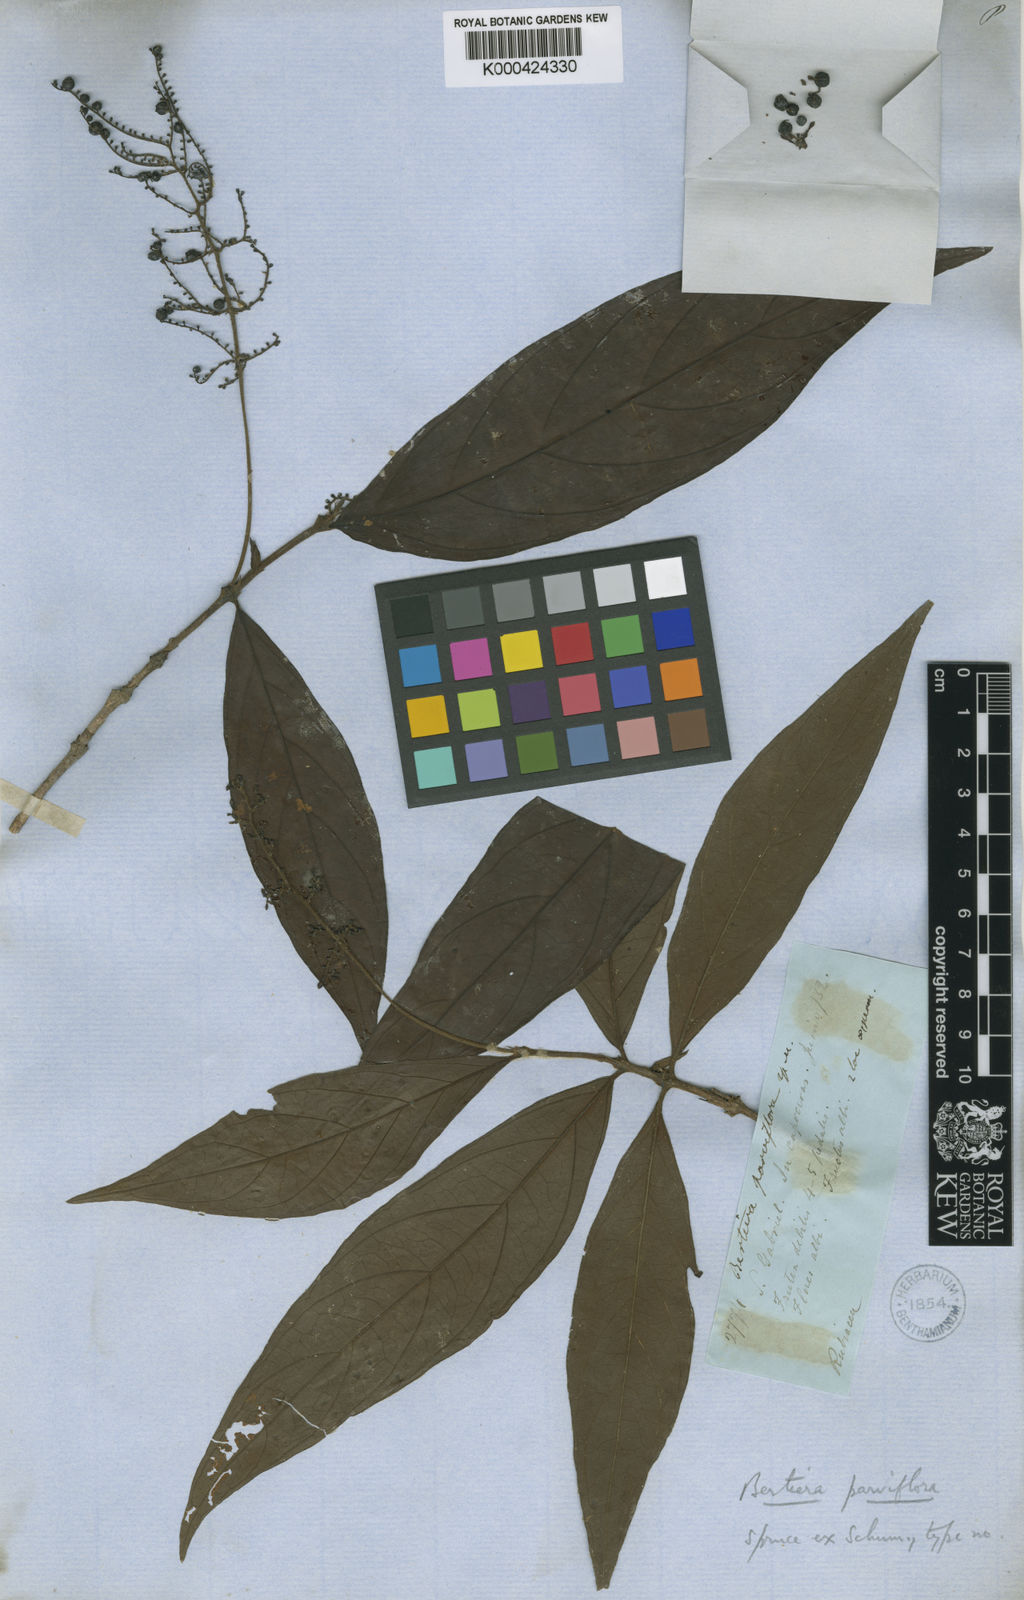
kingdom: Plantae
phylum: Tracheophyta
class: Magnoliopsida
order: Gentianales
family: Rubiaceae
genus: Bertiera
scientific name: Bertiera parviflora
